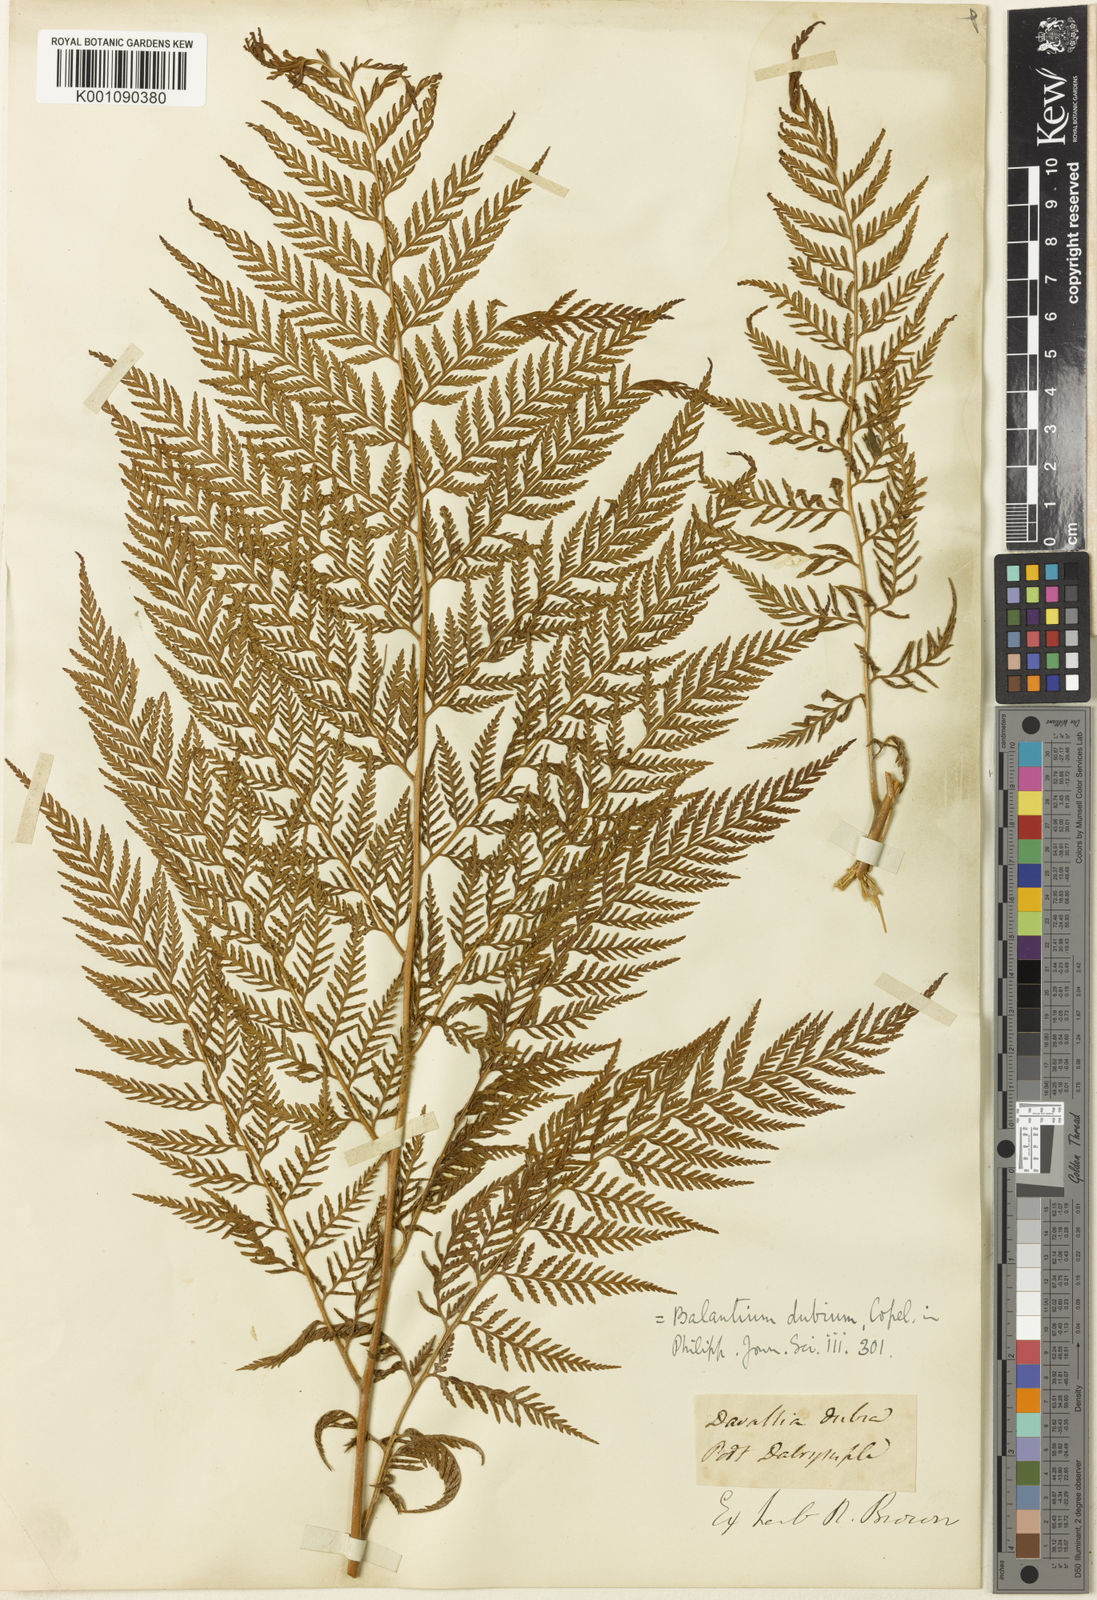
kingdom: Plantae
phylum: Tracheophyta
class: Polypodiopsida
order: Cyatheales
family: Dicksoniaceae
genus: Calochlaena
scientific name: Calochlaena dubia
